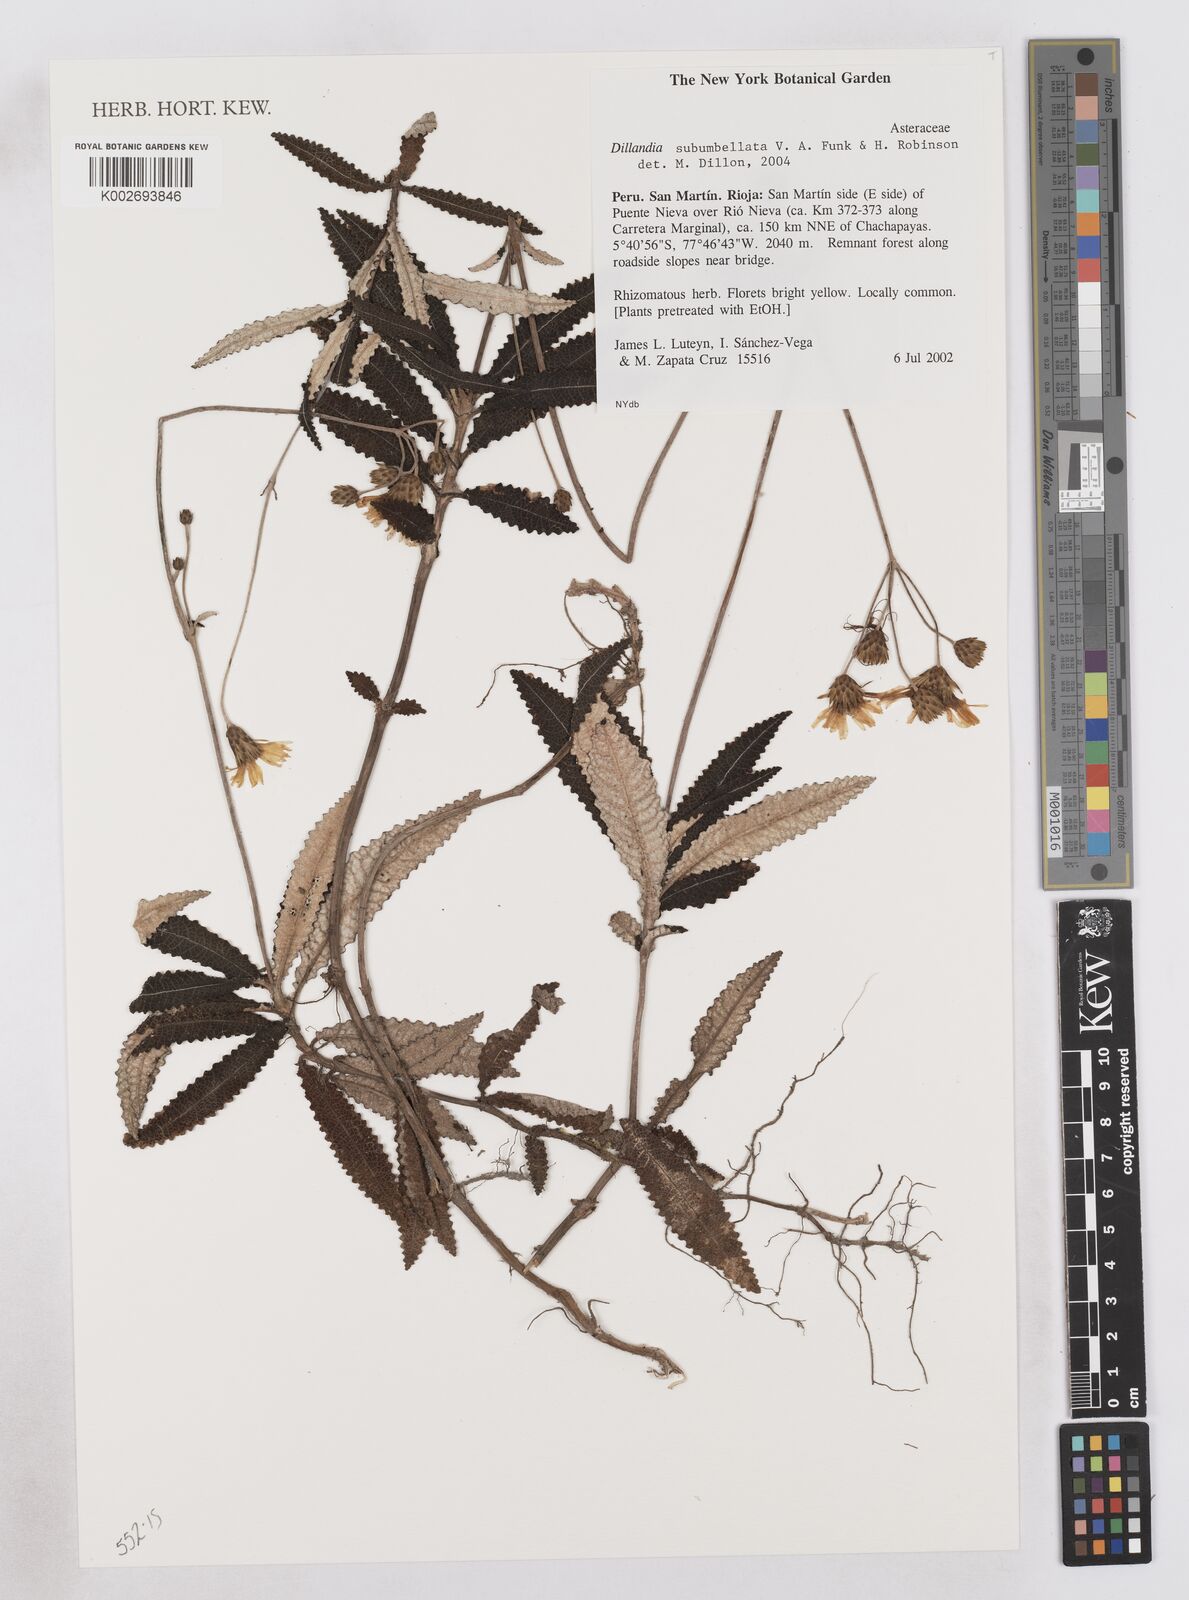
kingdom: Plantae
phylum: Tracheophyta
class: Magnoliopsida
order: Asterales
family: Asteraceae
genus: Dillandia
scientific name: Dillandia subumbellata
